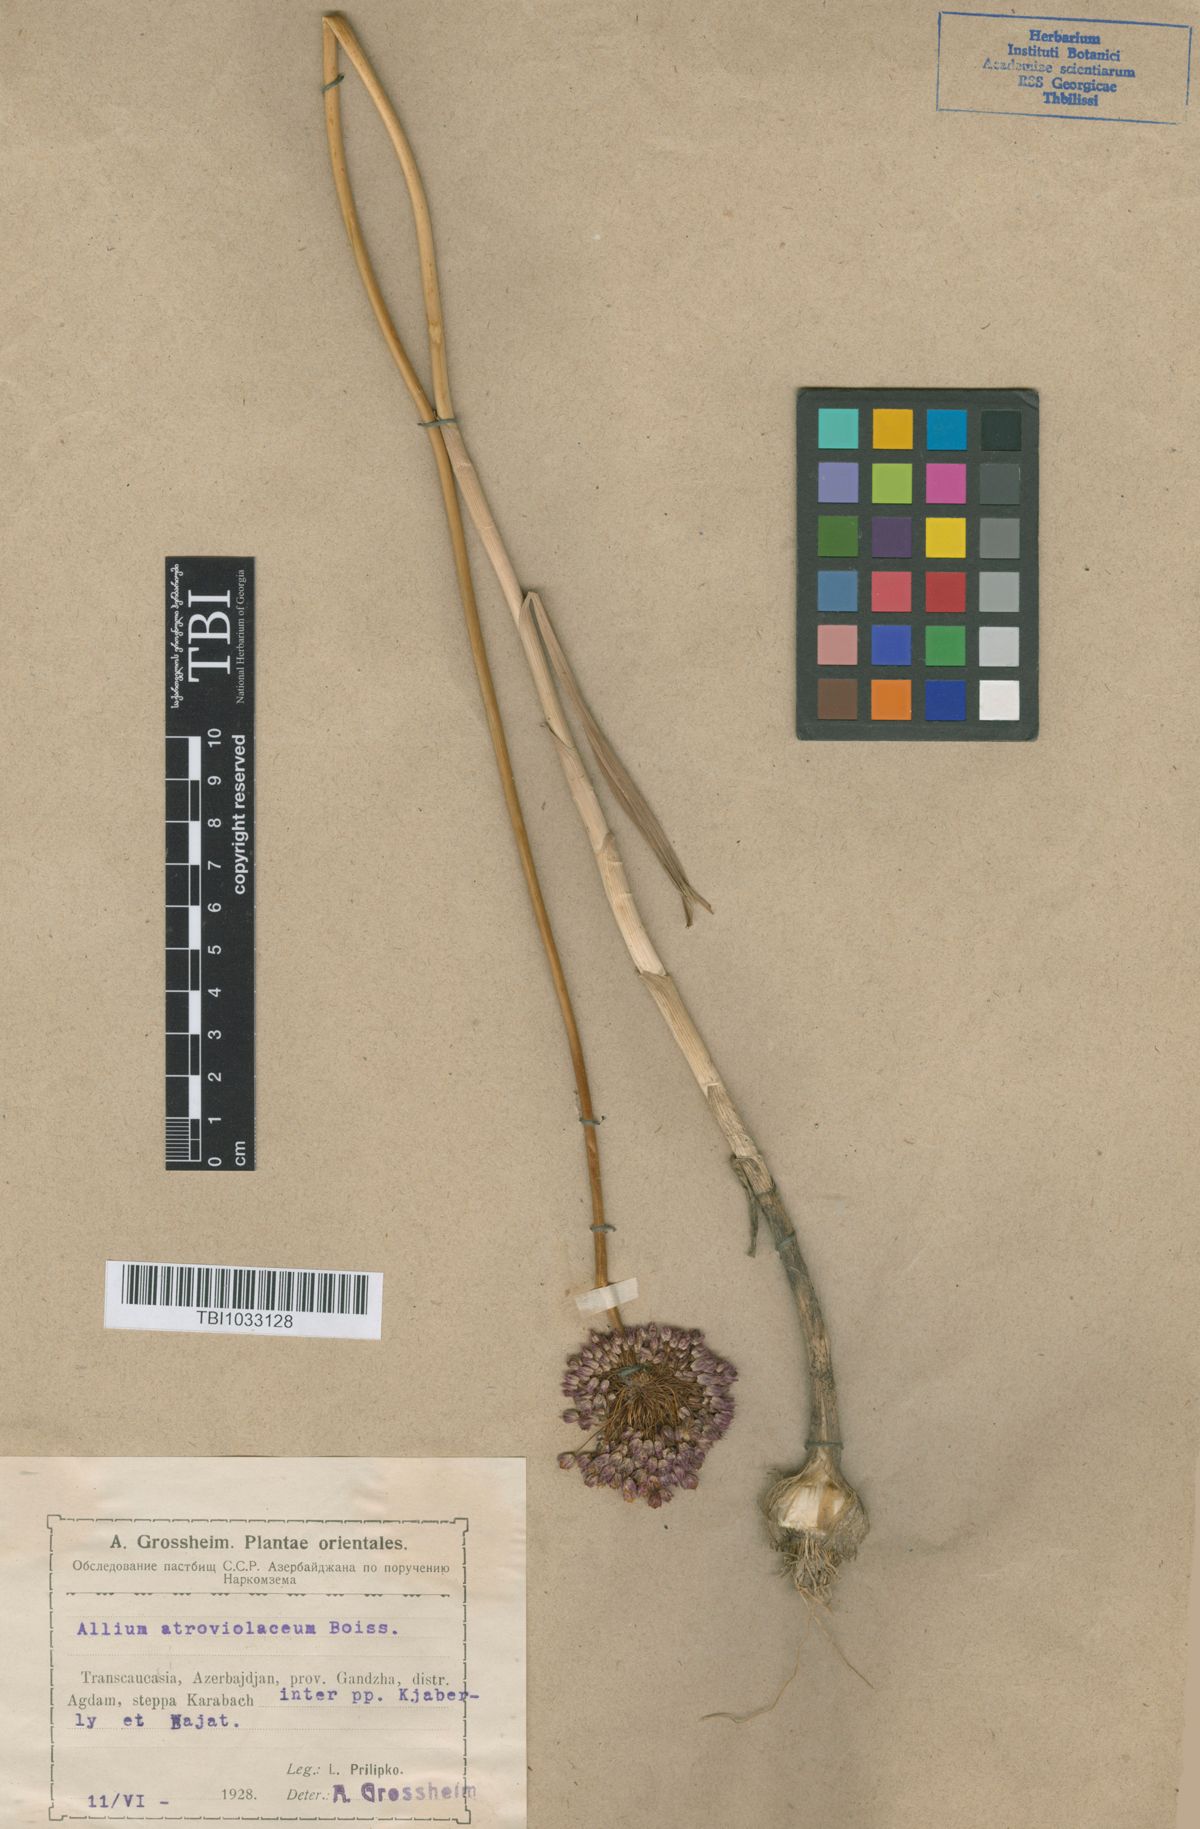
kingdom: Plantae
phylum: Tracheophyta
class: Liliopsida
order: Asparagales
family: Amaryllidaceae
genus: Allium
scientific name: Allium atroviolaceum
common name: Broadleaf wild leek
